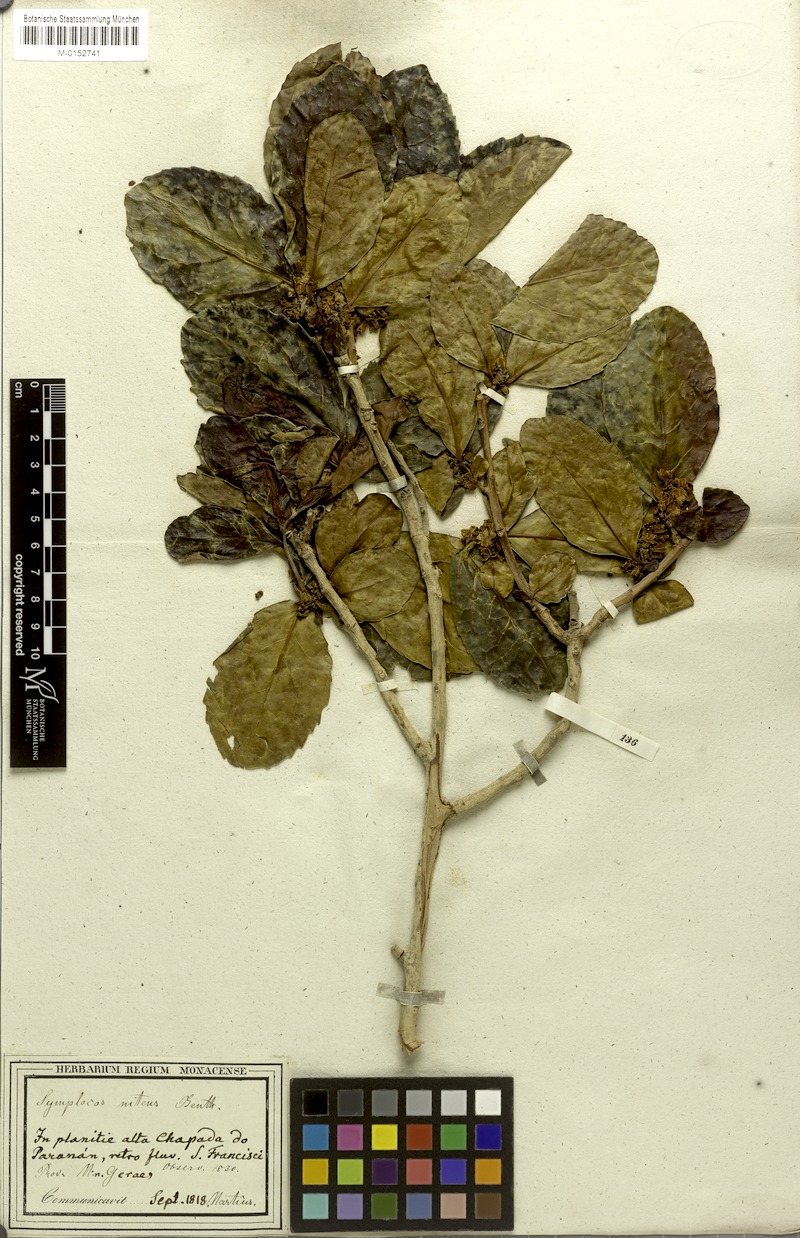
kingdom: Plantae
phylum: Tracheophyta
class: Magnoliopsida
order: Ericales
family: Symplocaceae
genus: Symplocos
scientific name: Symplocos nitens
